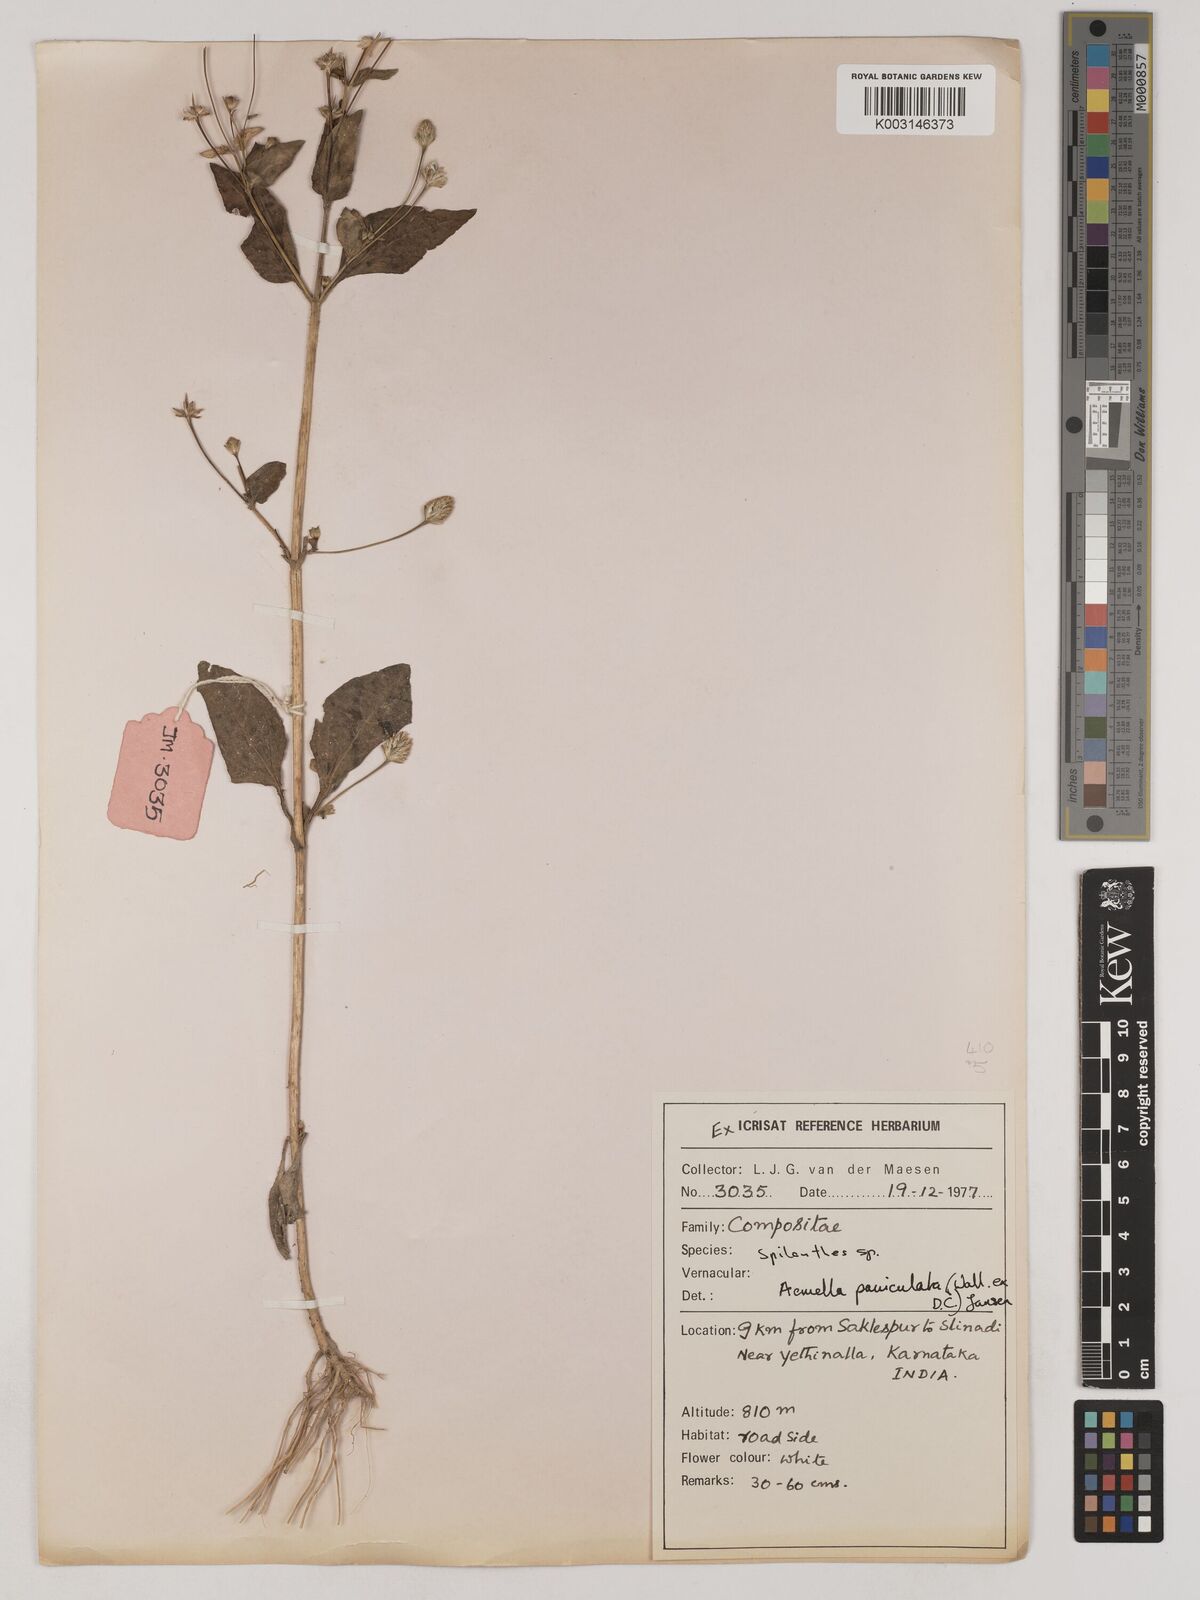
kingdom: Plantae
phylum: Tracheophyta
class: Magnoliopsida
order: Asterales
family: Asteraceae
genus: Acmella
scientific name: Acmella paniculata
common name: Panicled spot flower
